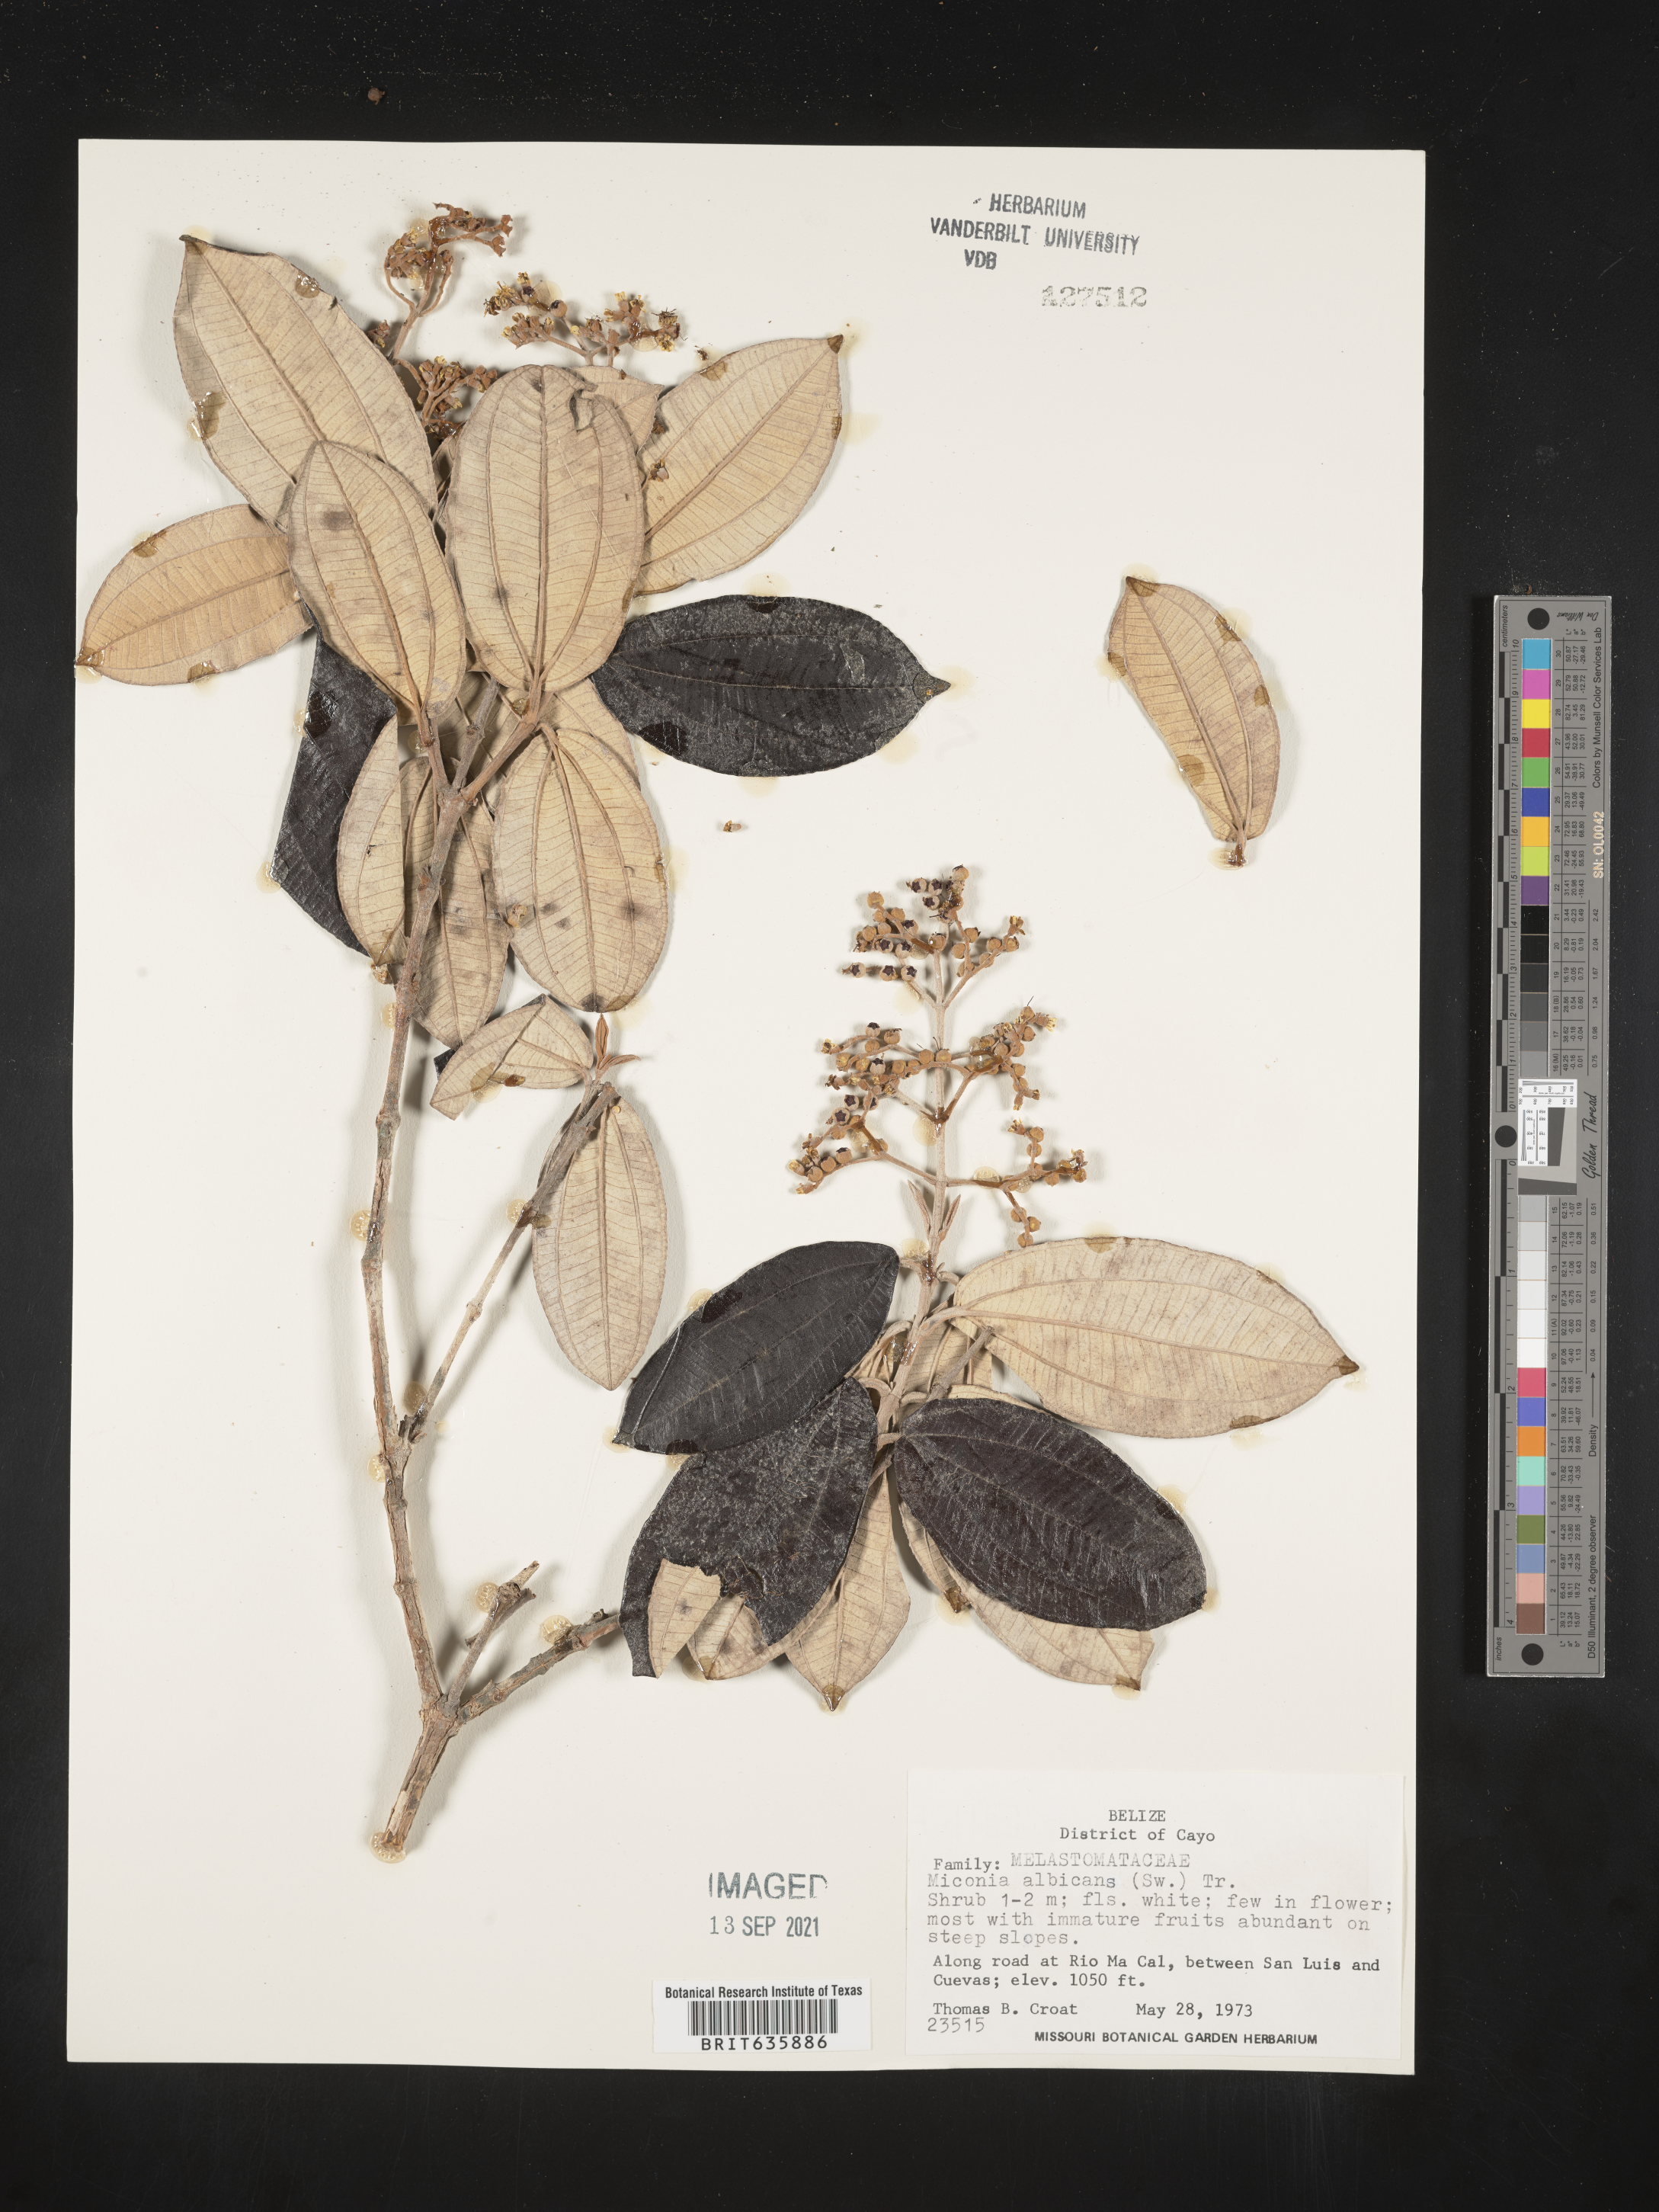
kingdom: Plantae
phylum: Tracheophyta
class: Magnoliopsida
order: Myrtales
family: Melastomataceae
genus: Miconia
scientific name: Miconia
